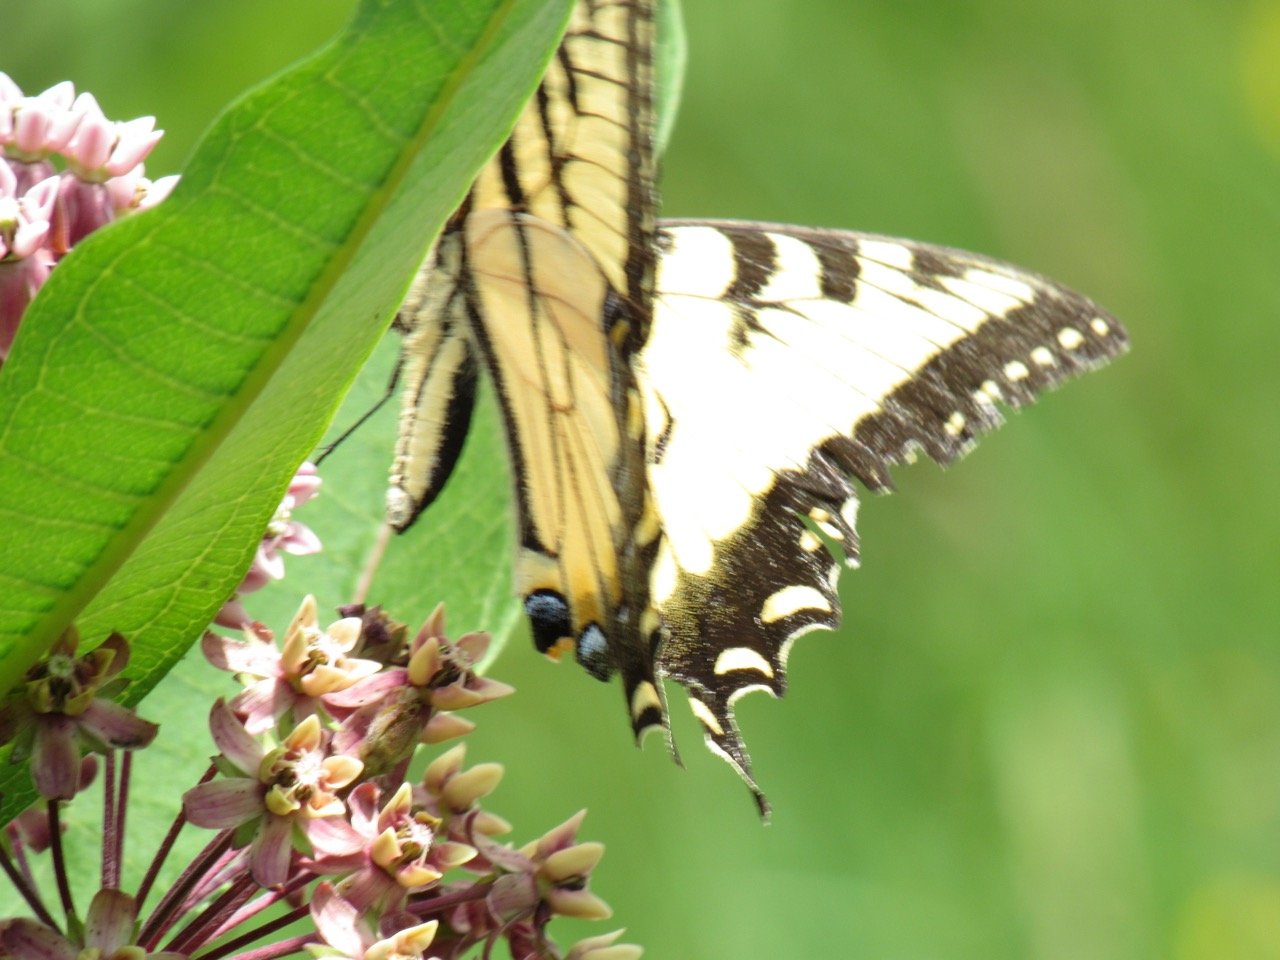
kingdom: Animalia
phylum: Arthropoda
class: Insecta
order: Lepidoptera
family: Papilionidae
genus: Pterourus
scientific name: Pterourus
